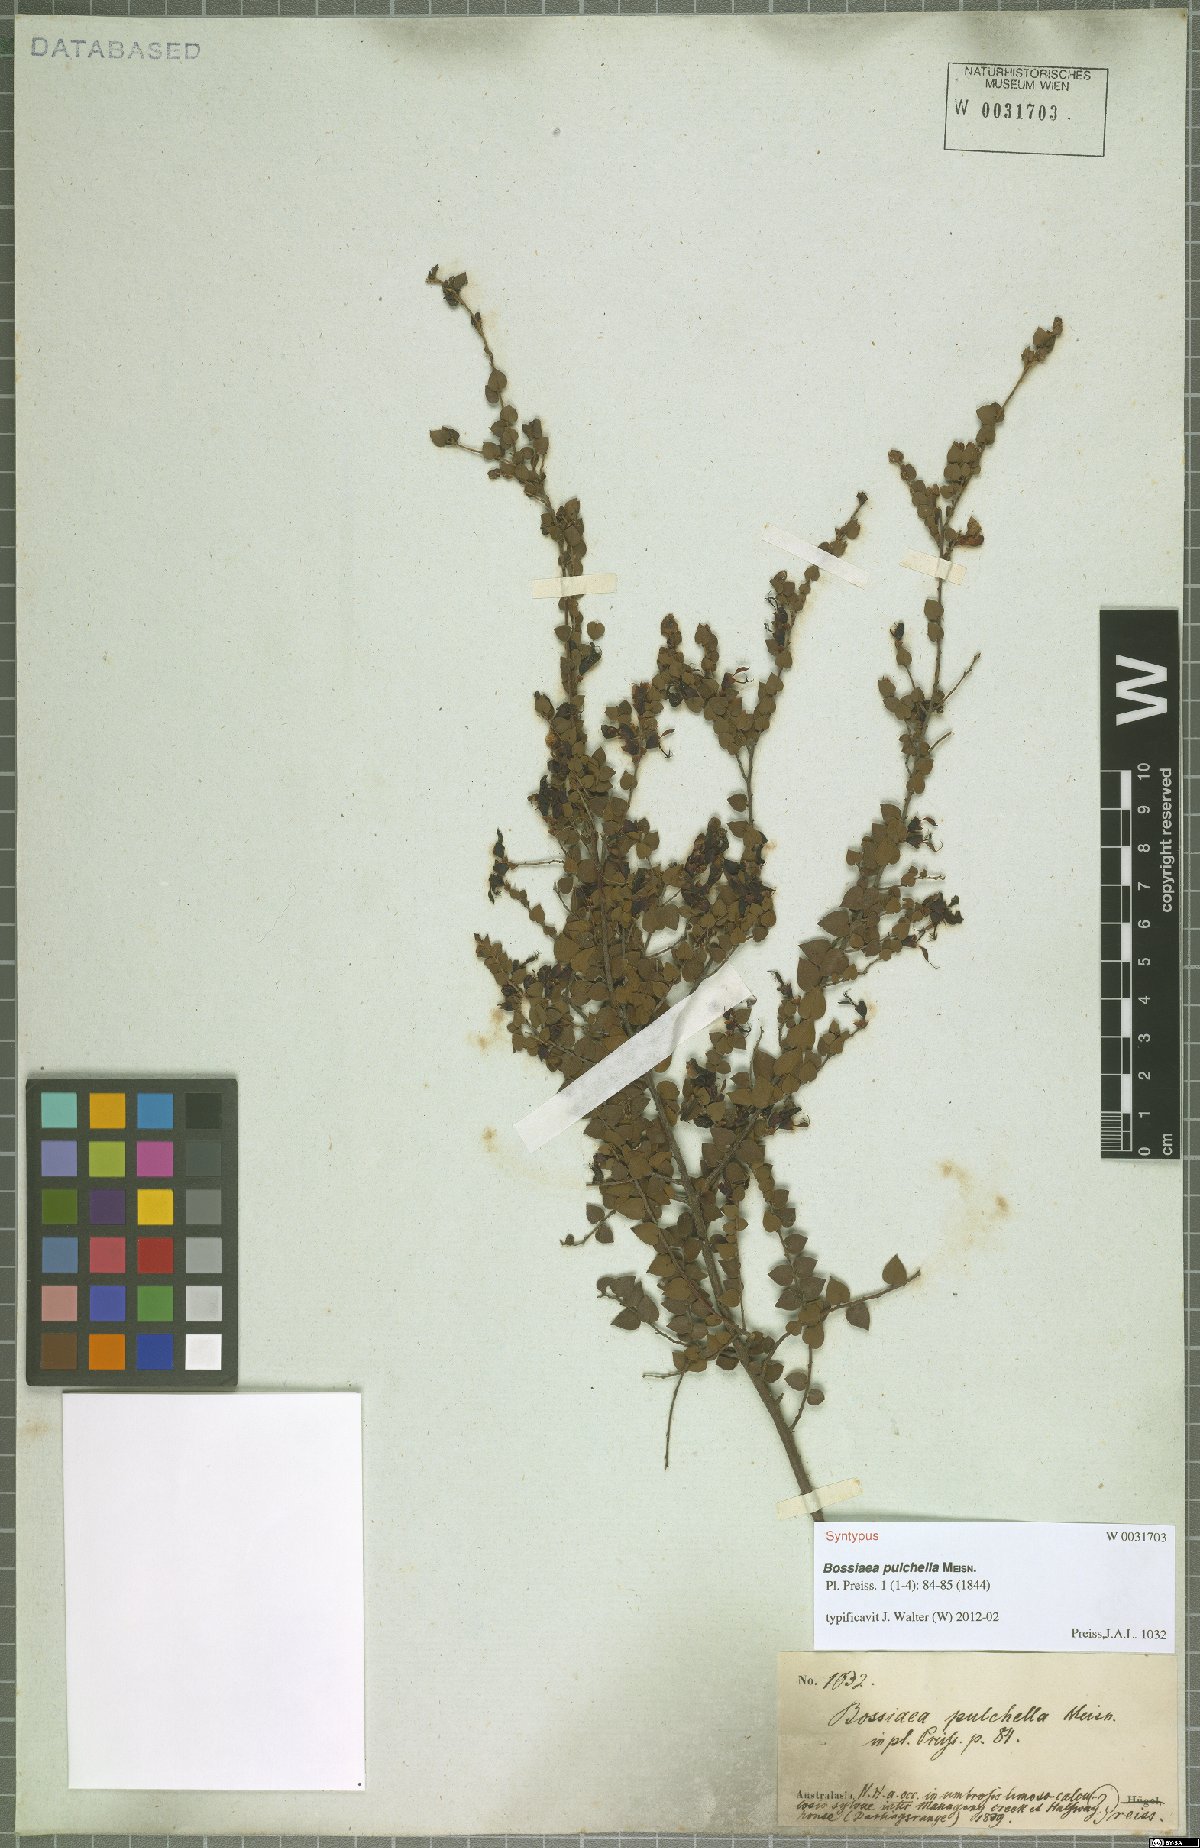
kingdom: Plantae
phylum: Tracheophyta
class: Magnoliopsida
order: Fabales
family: Fabaceae
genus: Bossiaea
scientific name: Bossiaea pulchella
